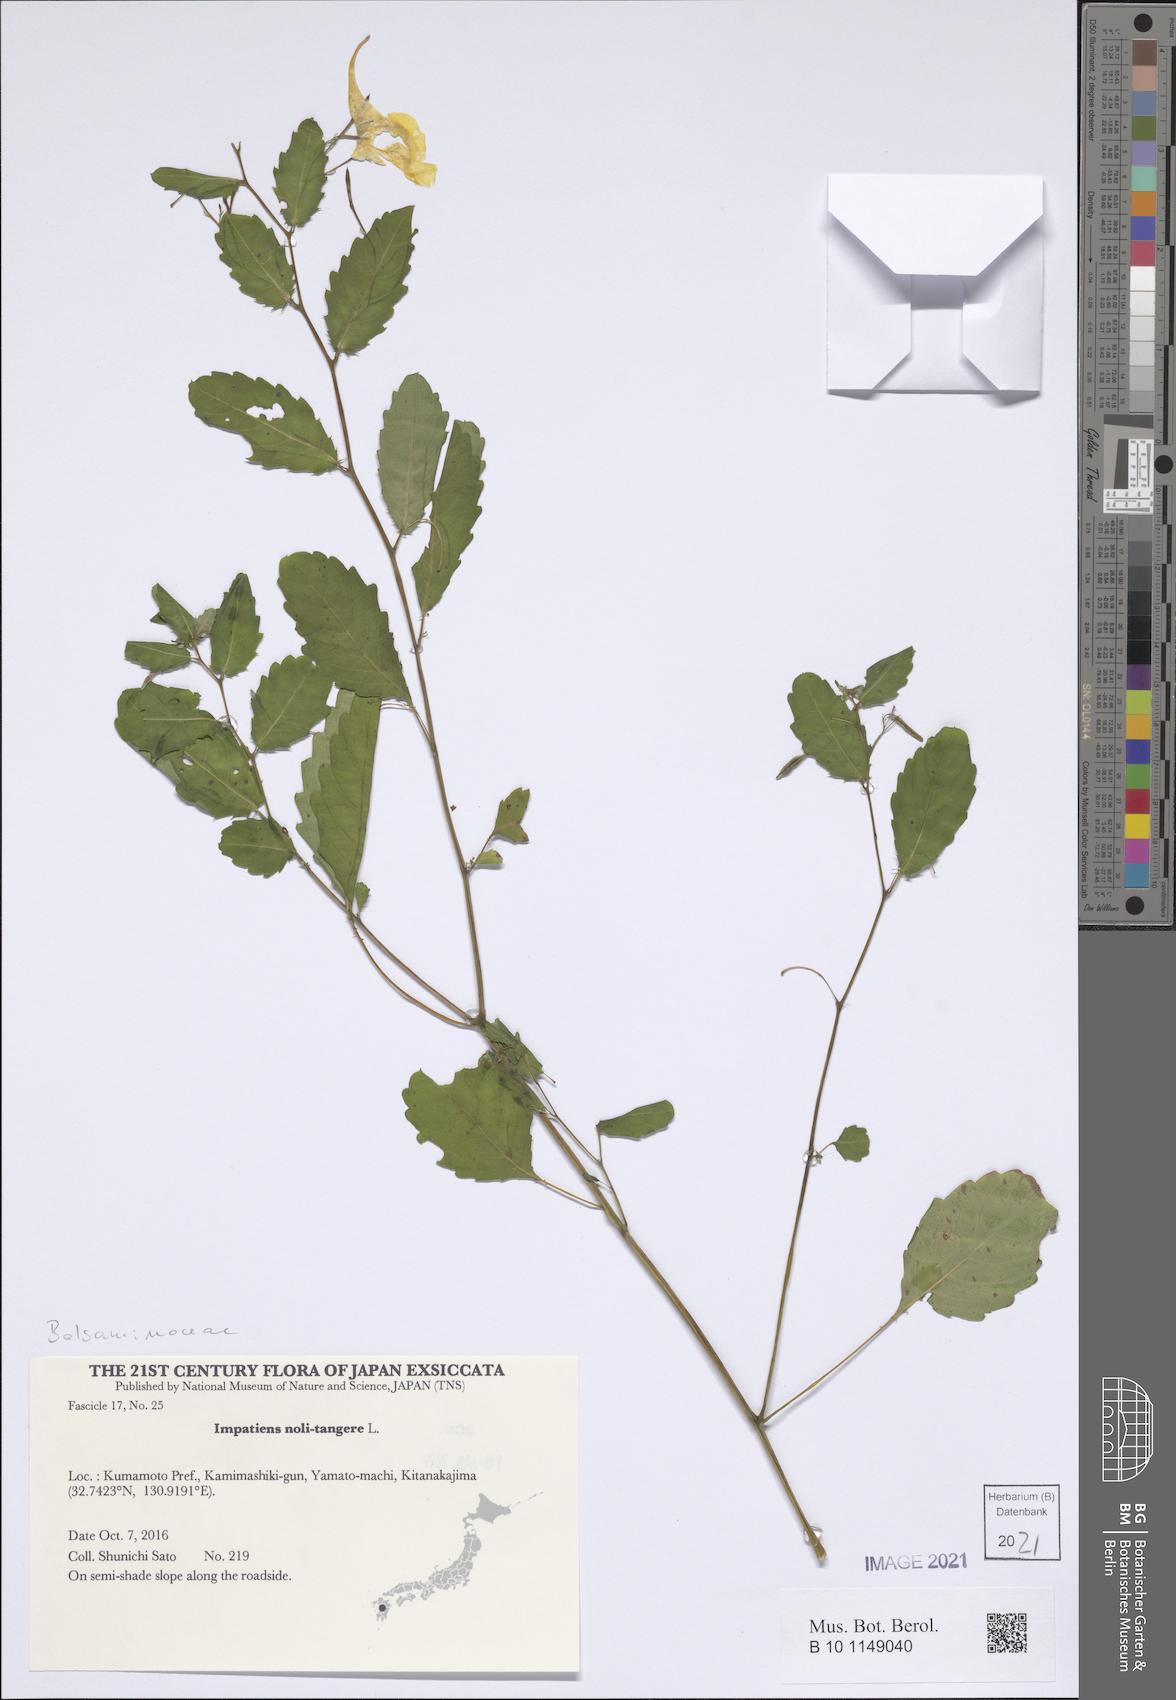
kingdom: Plantae
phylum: Tracheophyta
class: Magnoliopsida
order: Ericales
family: Balsaminaceae
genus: Impatiens
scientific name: Impatiens noli-tangere
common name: Touch-me-not balsam
